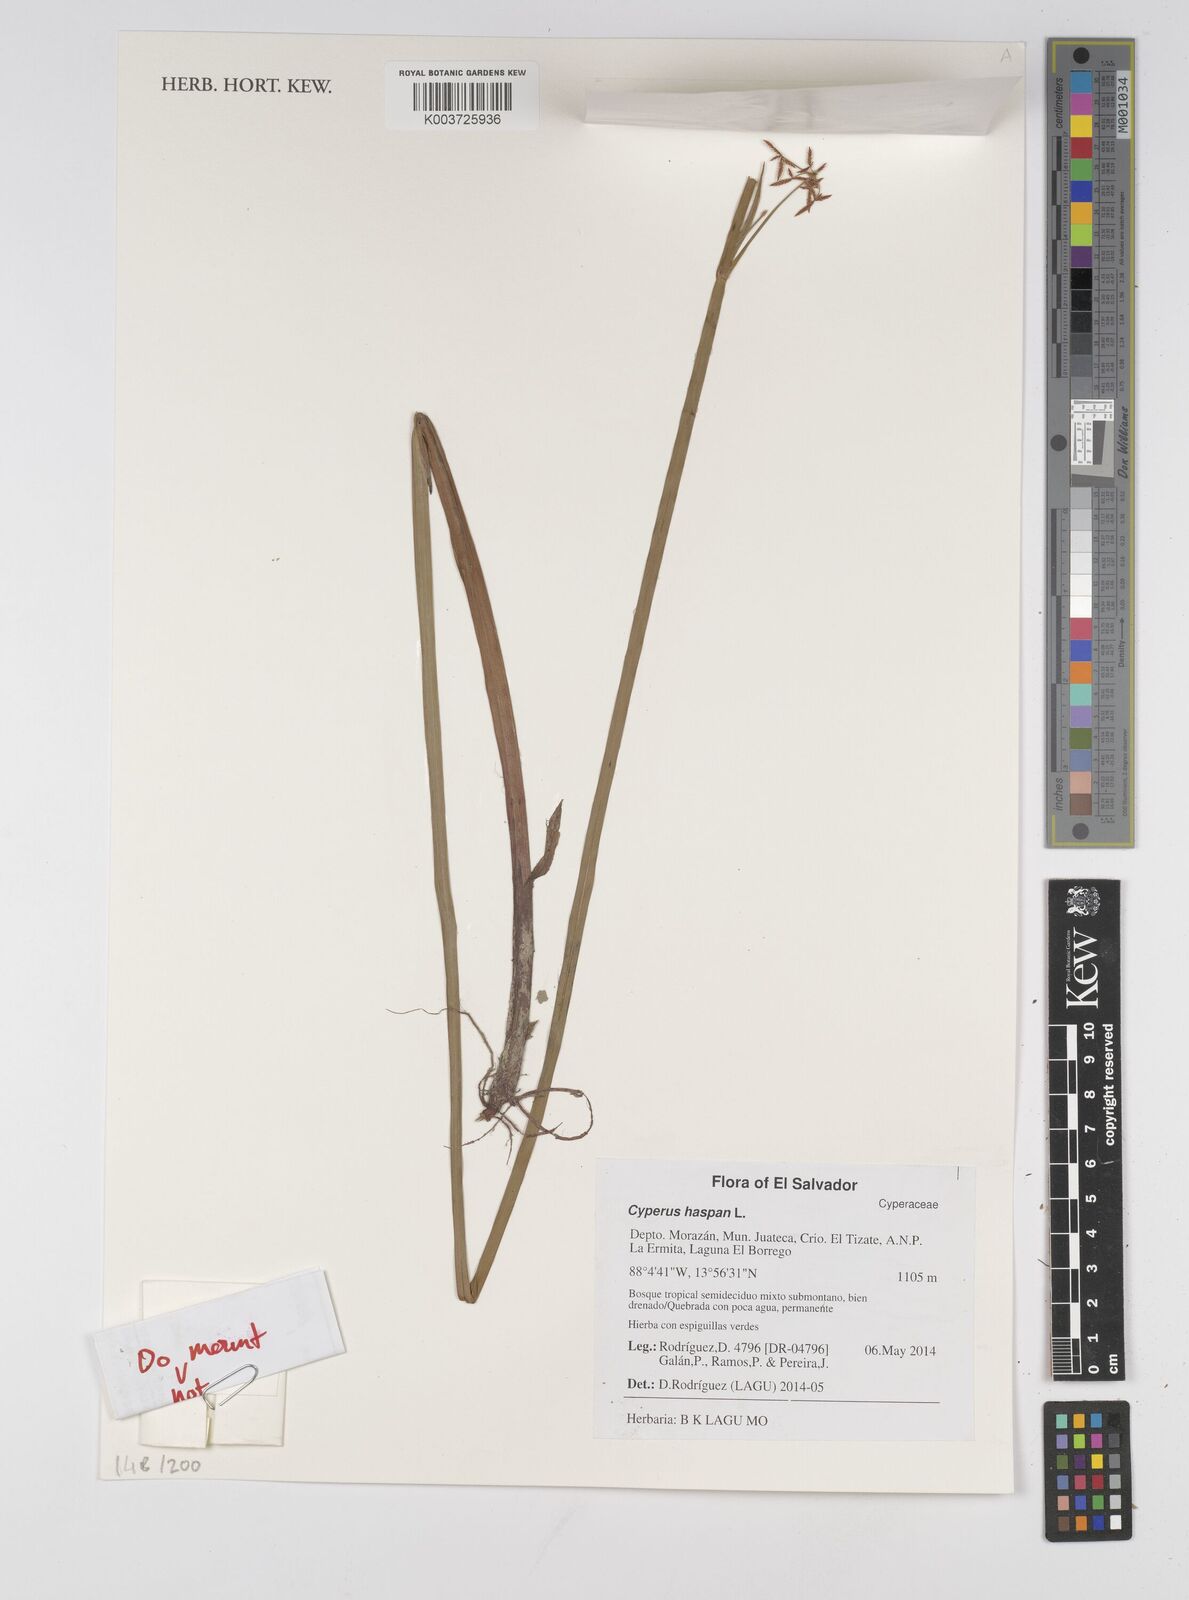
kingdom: Plantae
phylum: Tracheophyta
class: Liliopsida
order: Poales
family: Cyperaceae
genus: Cyperus
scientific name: Cyperus haspan
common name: Haspan flatsedge
